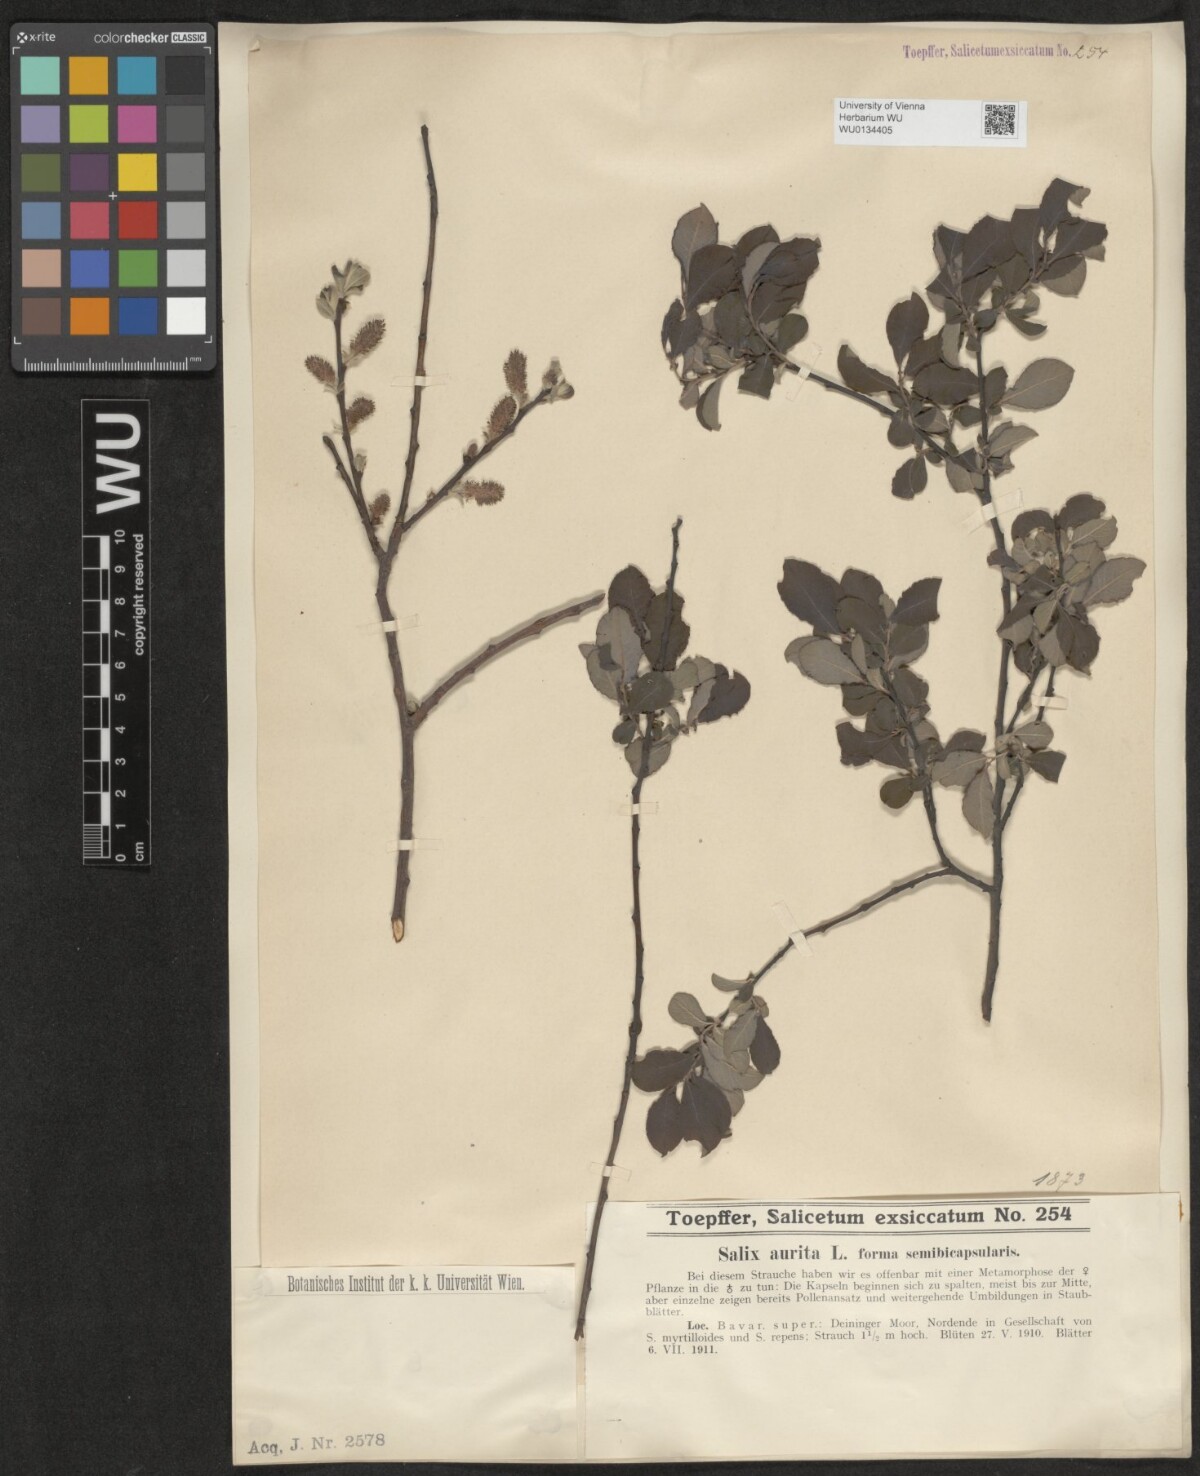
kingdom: Plantae
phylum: Tracheophyta
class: Magnoliopsida
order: Malpighiales
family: Salicaceae
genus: Salix
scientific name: Salix aurita
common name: Eared willow
